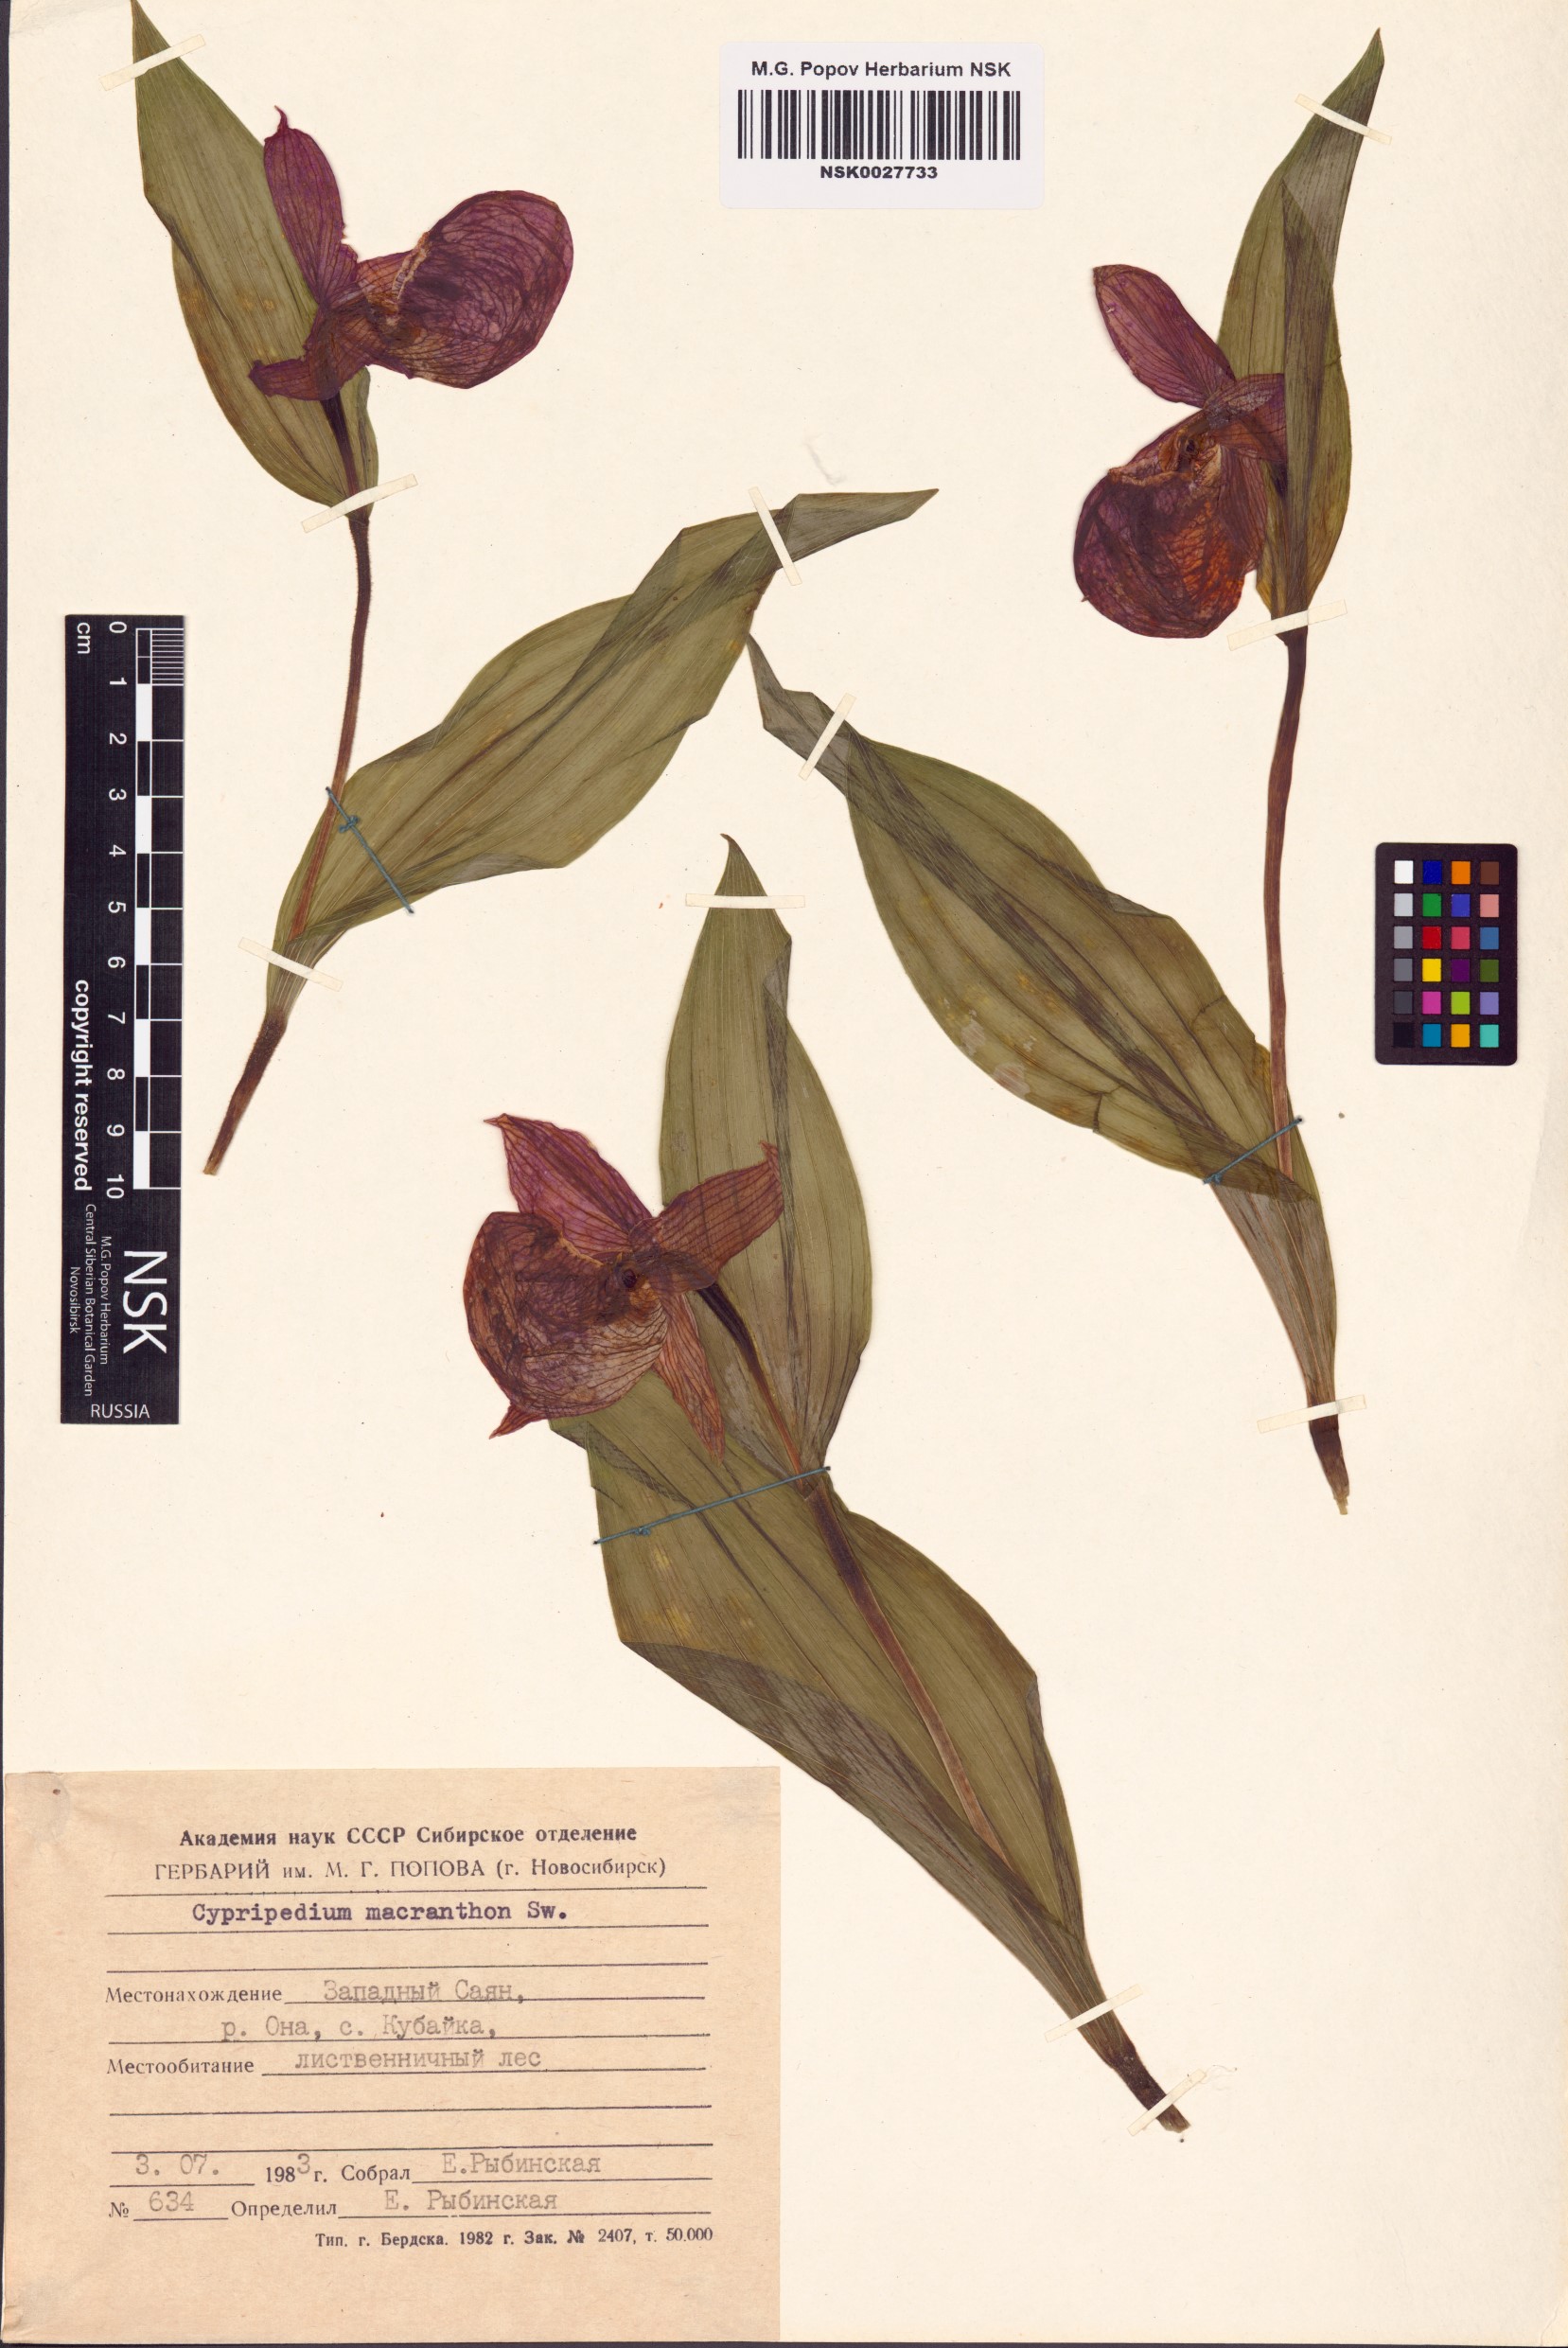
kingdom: Plantae
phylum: Tracheophyta
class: Liliopsida
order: Asparagales
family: Orchidaceae
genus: Cypripedium
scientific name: Cypripedium macranthos
